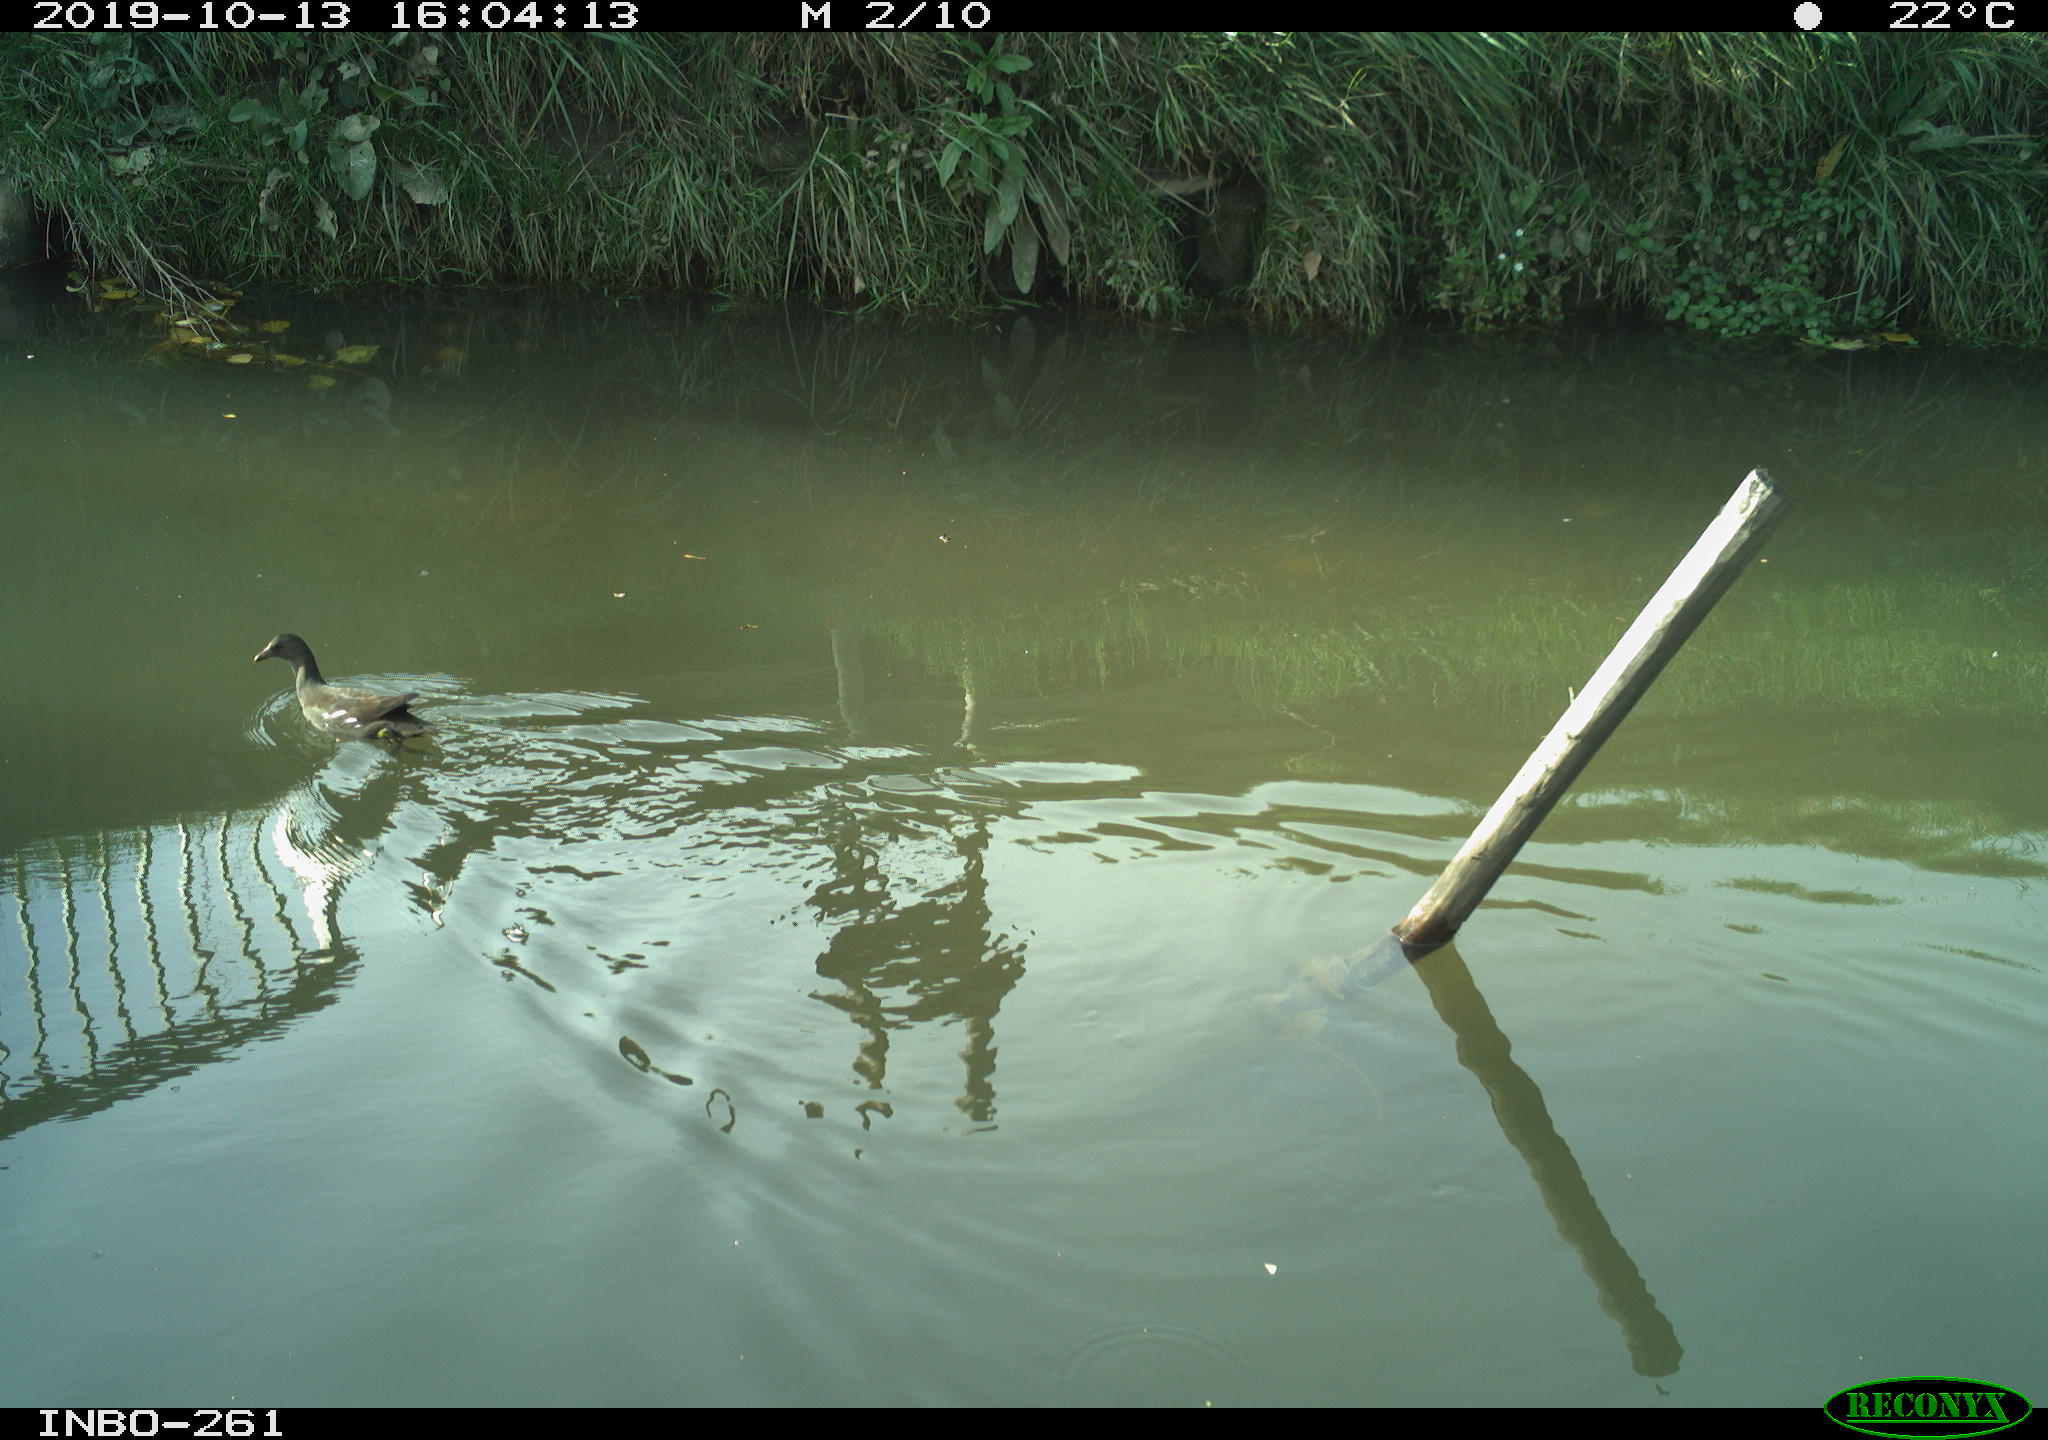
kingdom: Animalia
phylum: Chordata
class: Aves
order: Gruiformes
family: Rallidae
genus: Gallinula
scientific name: Gallinula chloropus
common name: Common moorhen
